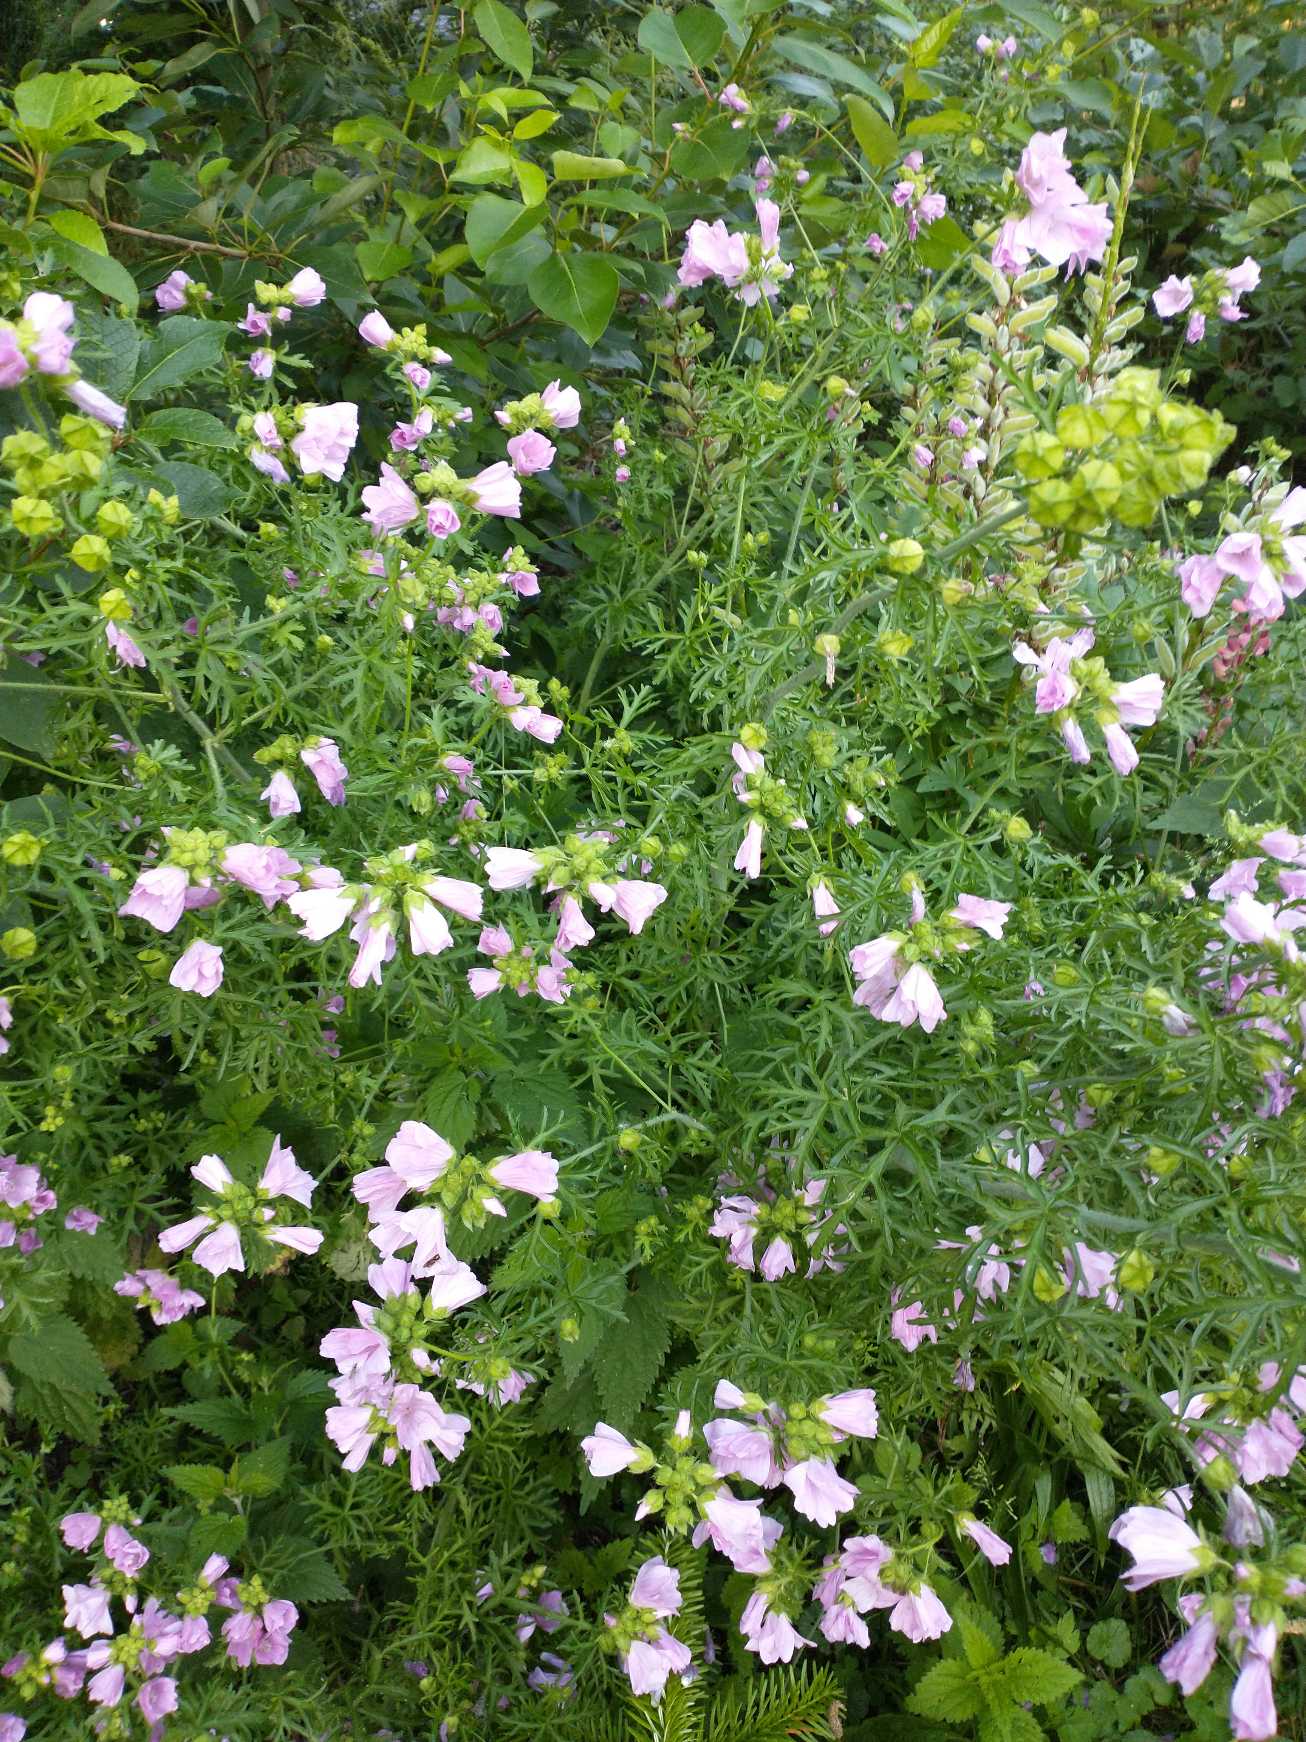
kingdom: Plantae
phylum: Tracheophyta
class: Magnoliopsida
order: Malvales
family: Malvaceae
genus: Malva
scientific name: Malva moschata
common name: Moskus-katost
